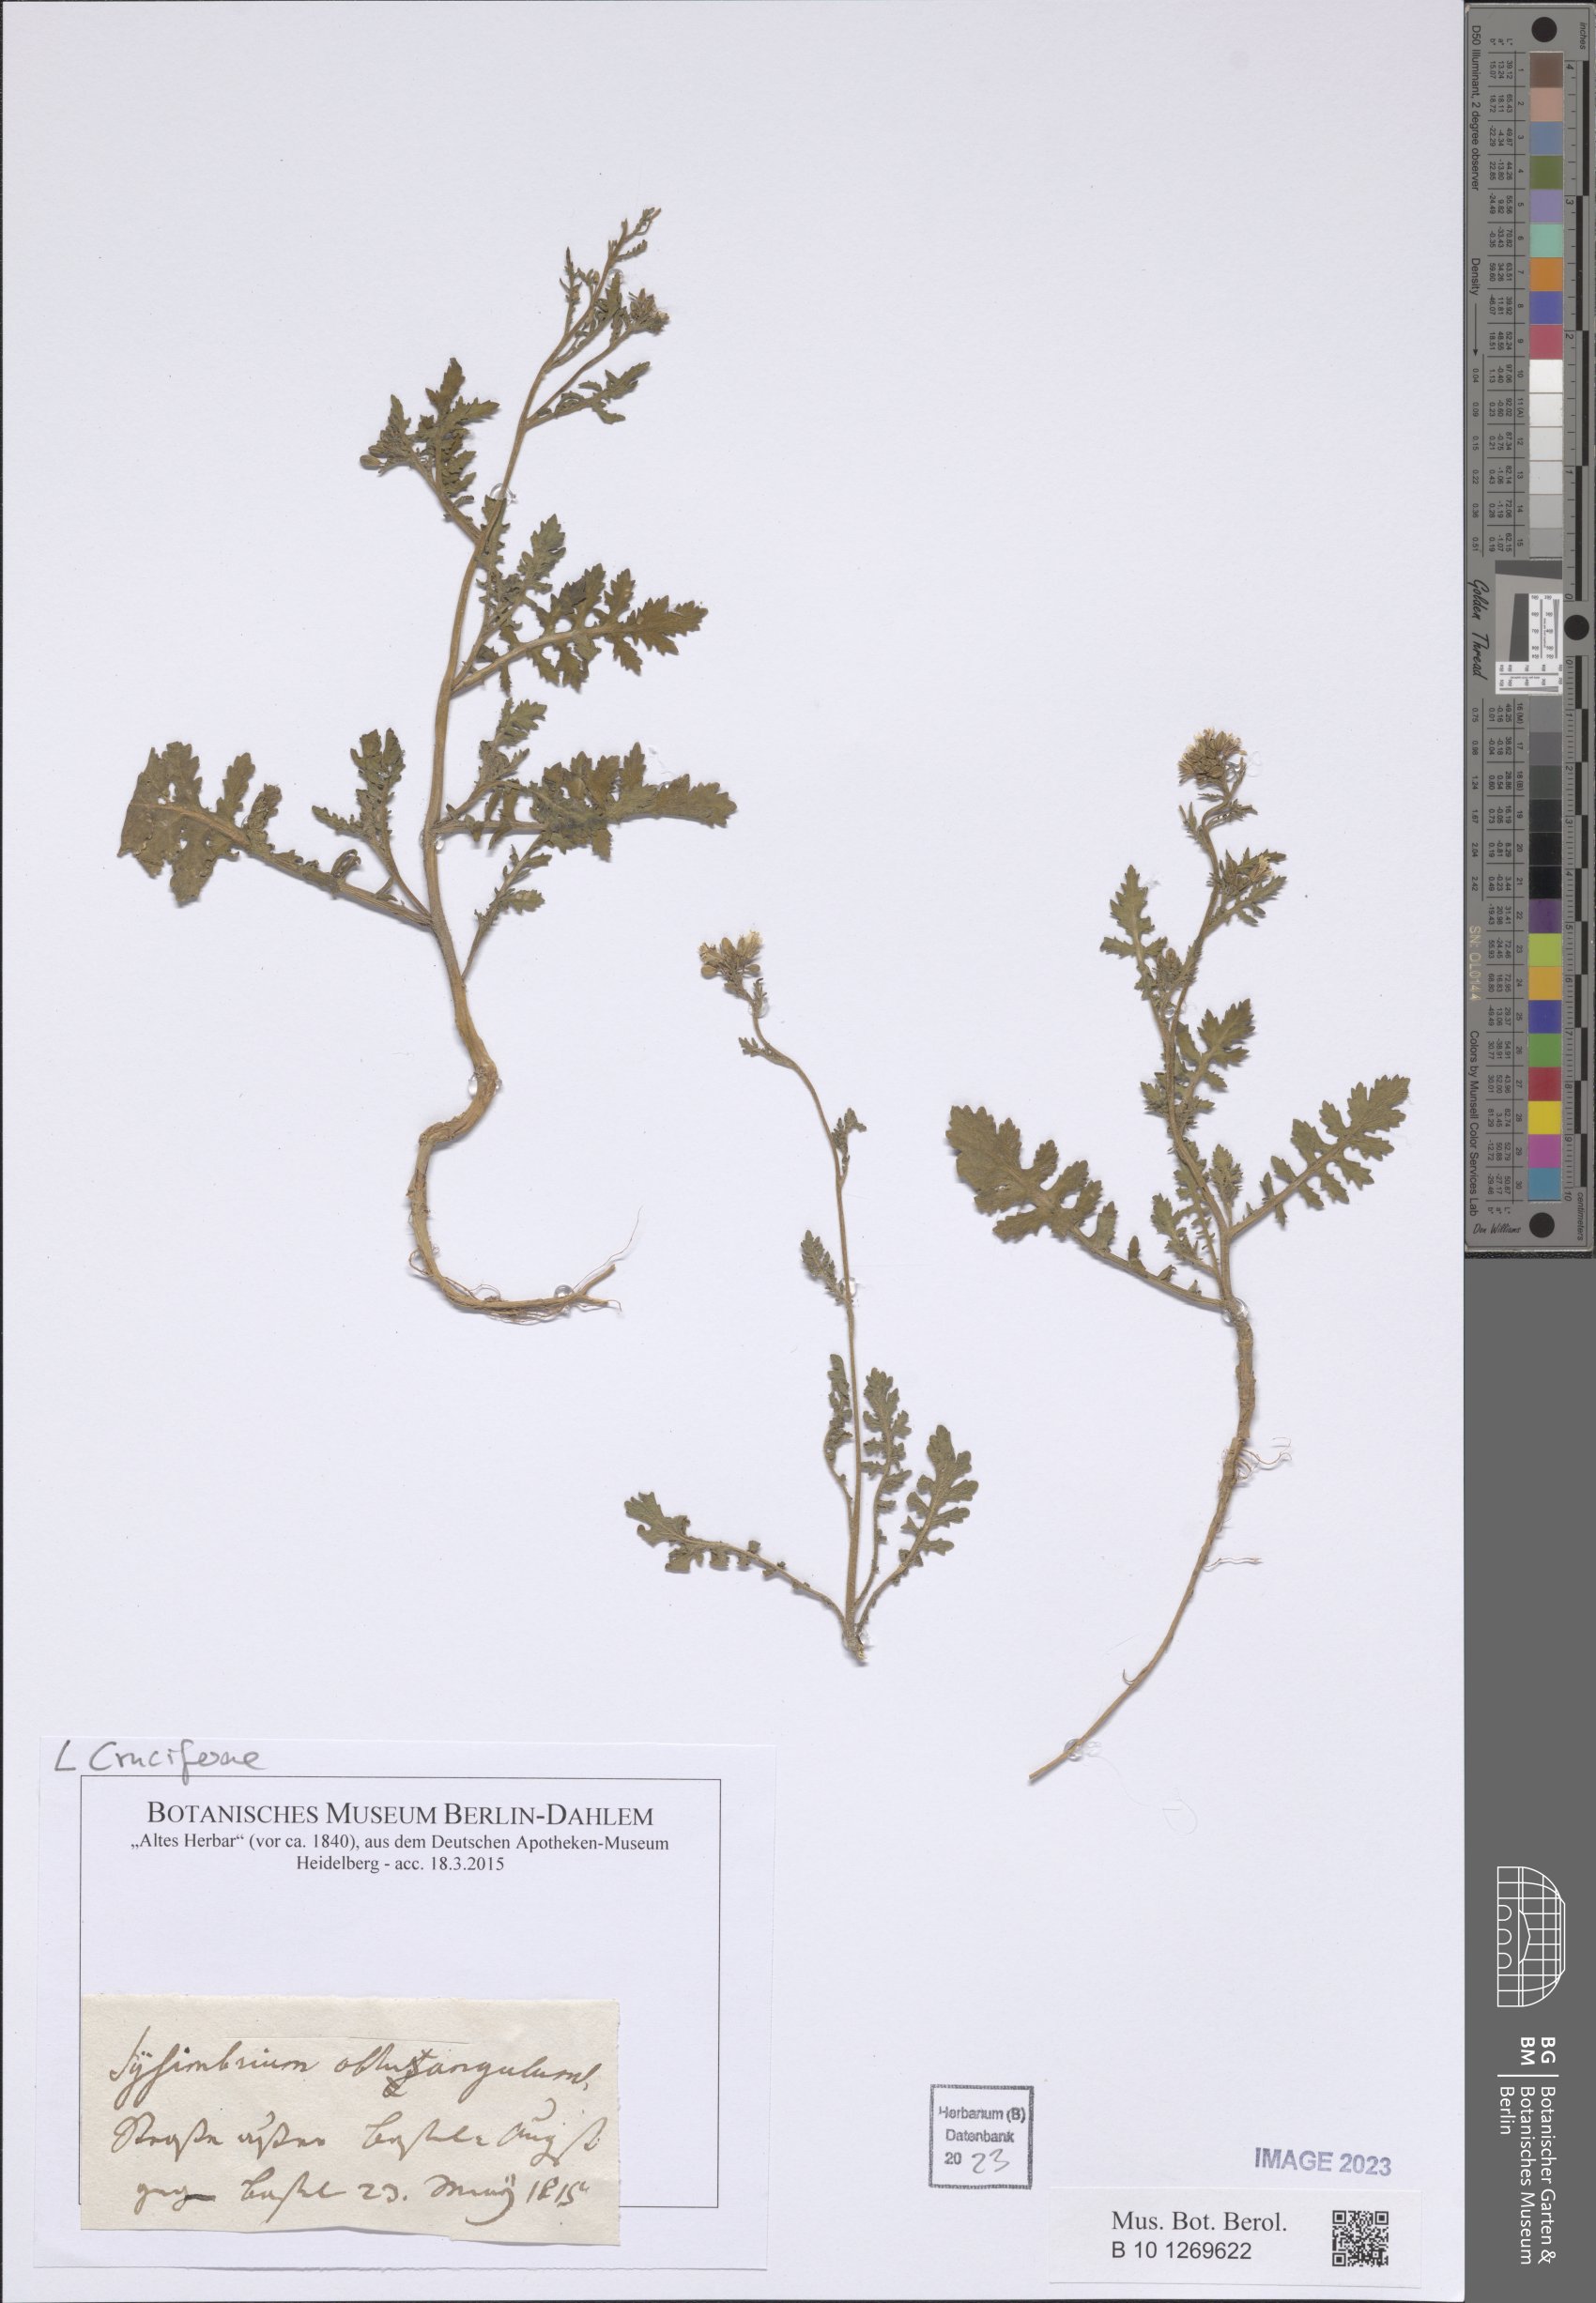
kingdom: Plantae
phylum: Tracheophyta
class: Magnoliopsida
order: Brassicales
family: Brassicaceae
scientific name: Brassicaceae
